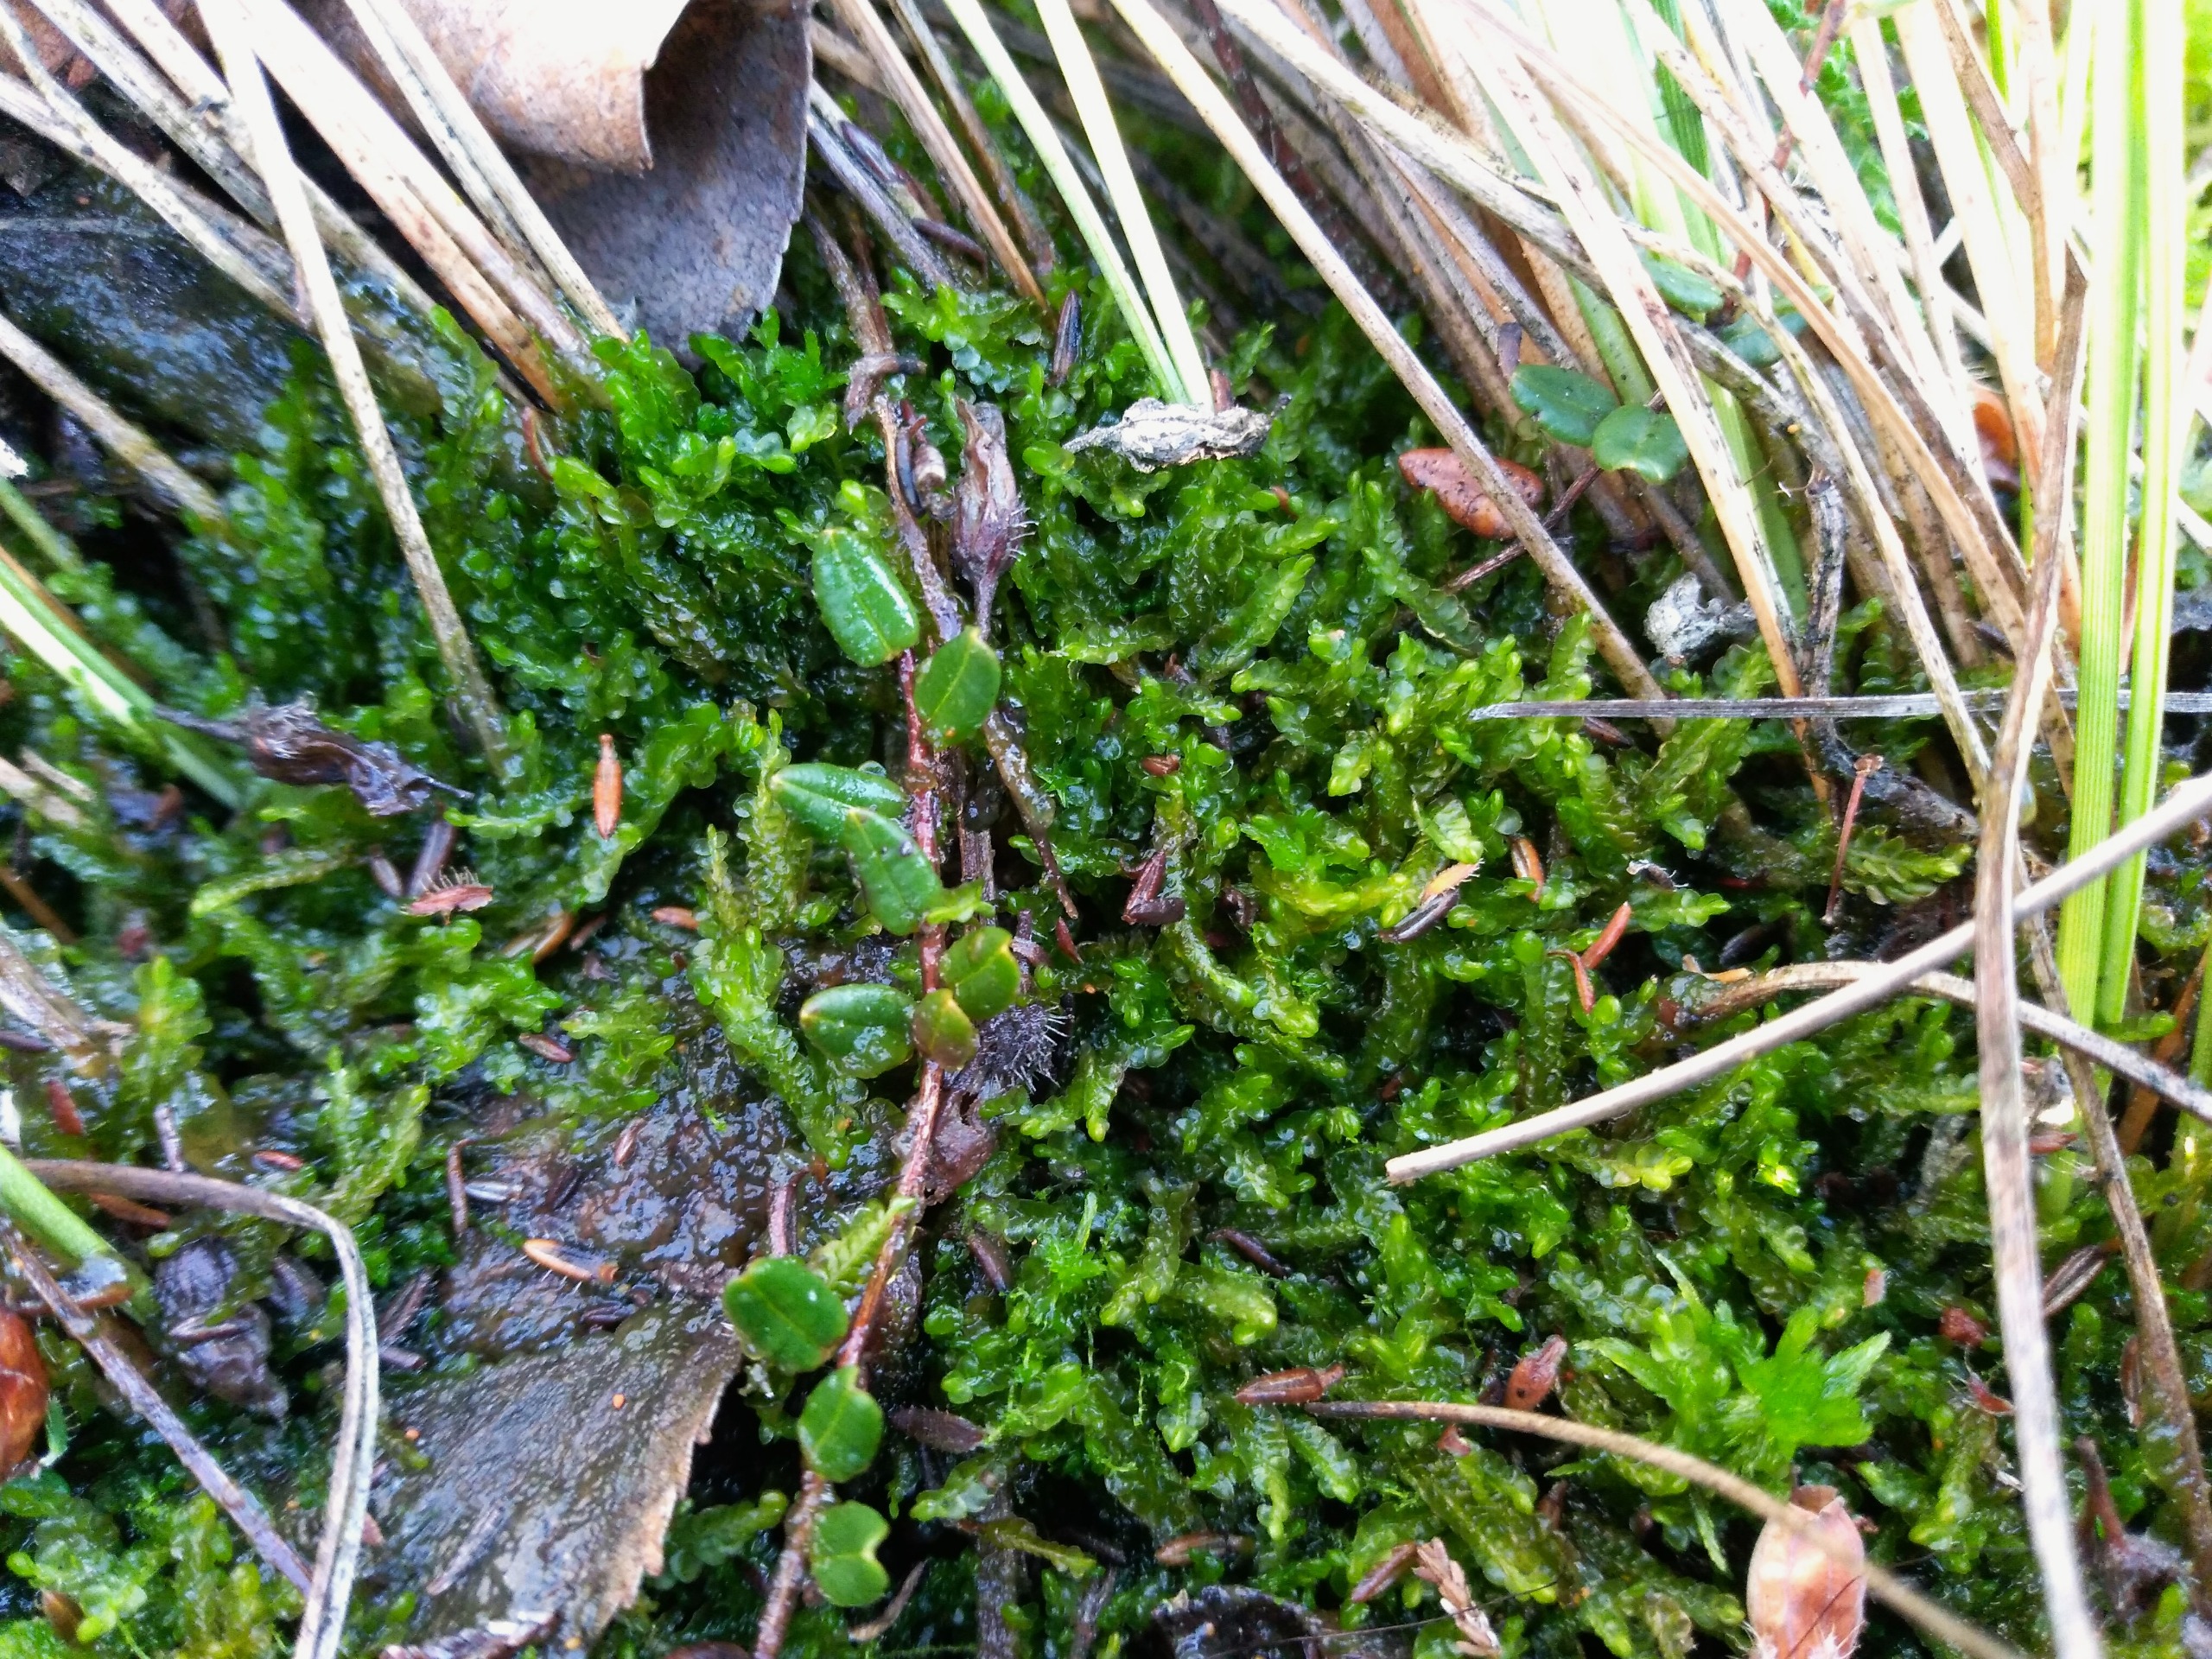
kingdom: Plantae
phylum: Marchantiophyta
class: Jungermanniopsida
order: Jungermanniales
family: Cephaloziaceae
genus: Odontoschisma
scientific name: Odontoschisma sphagni
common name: Almindelig flagelmos
